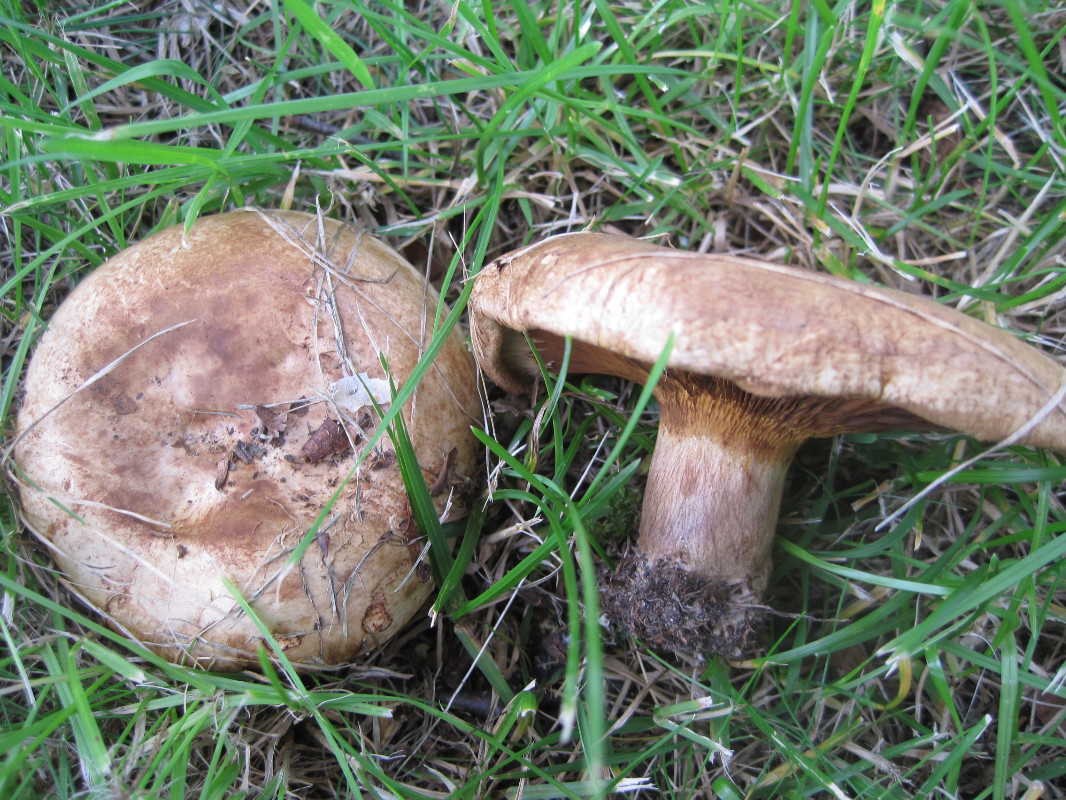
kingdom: Fungi
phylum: Basidiomycota
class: Agaricomycetes
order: Boletales
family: Paxillaceae
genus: Paxillus
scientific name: Paxillus obscurisporus
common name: mahognisporet netbladhat
